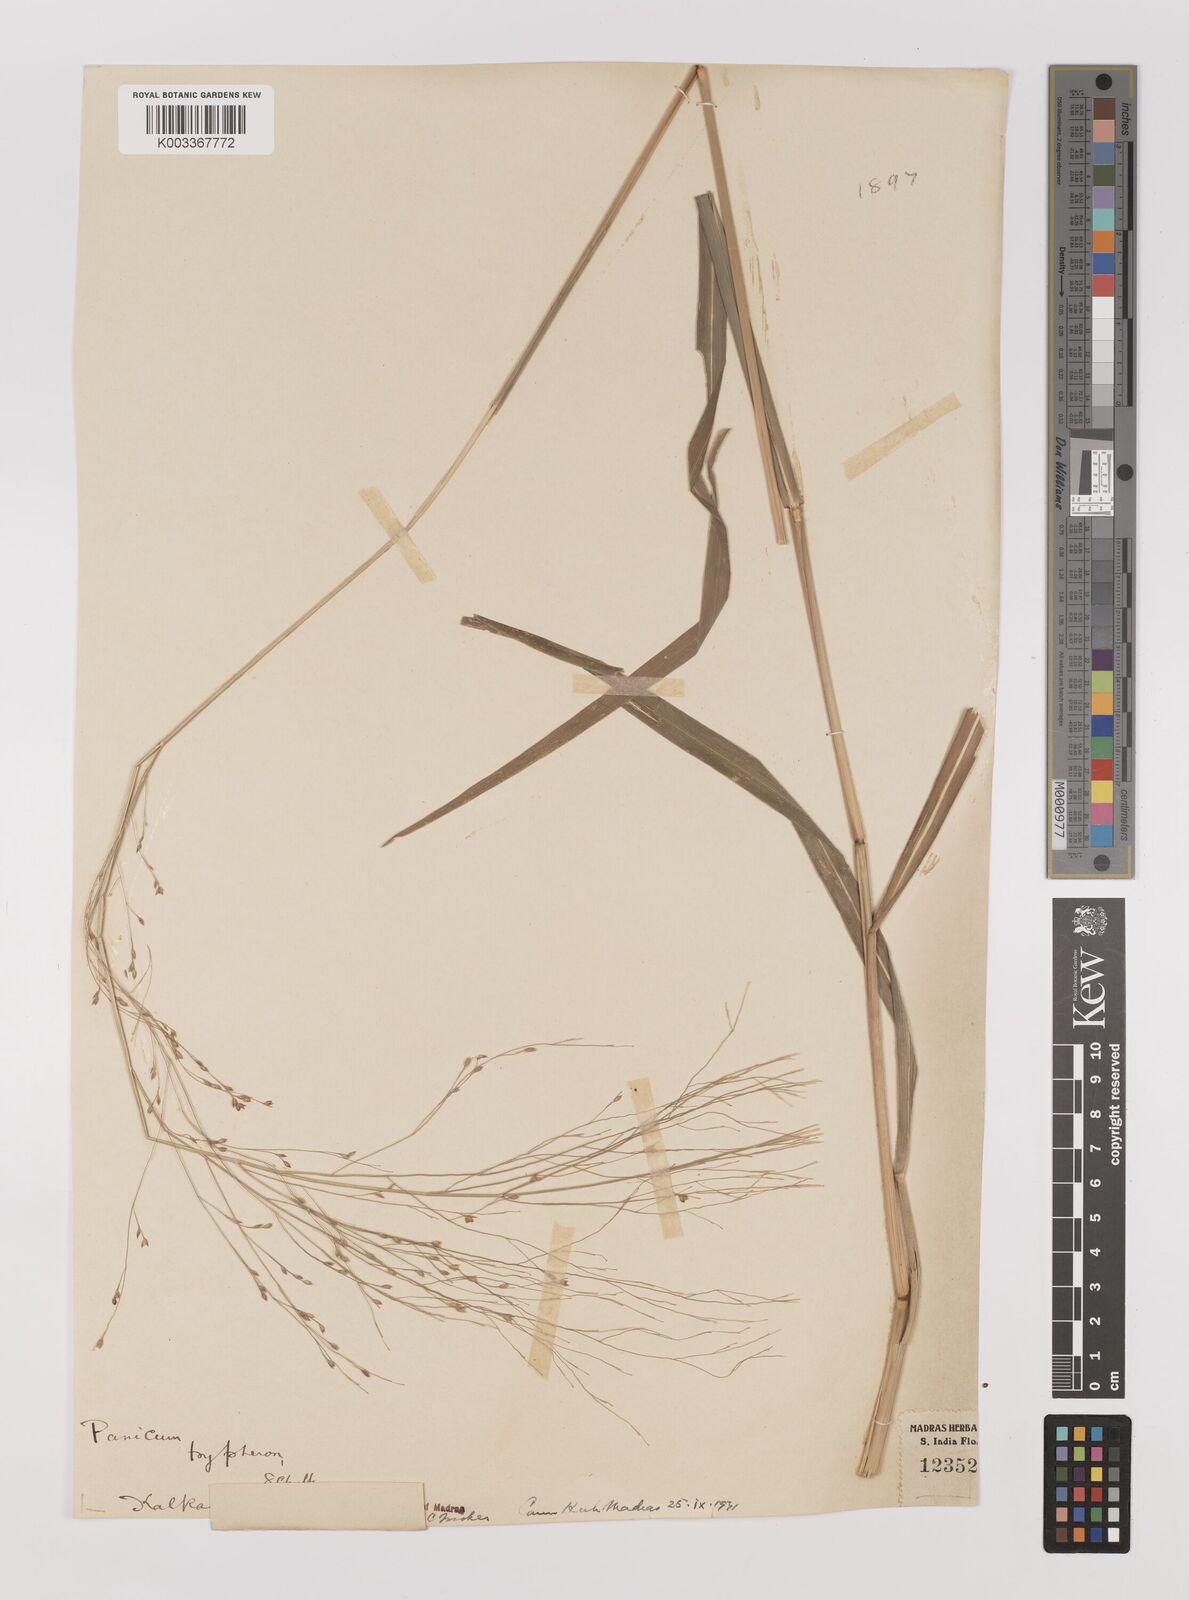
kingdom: Plantae
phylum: Tracheophyta
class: Liliopsida
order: Poales
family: Poaceae
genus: Panicum
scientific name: Panicum curviflorum
